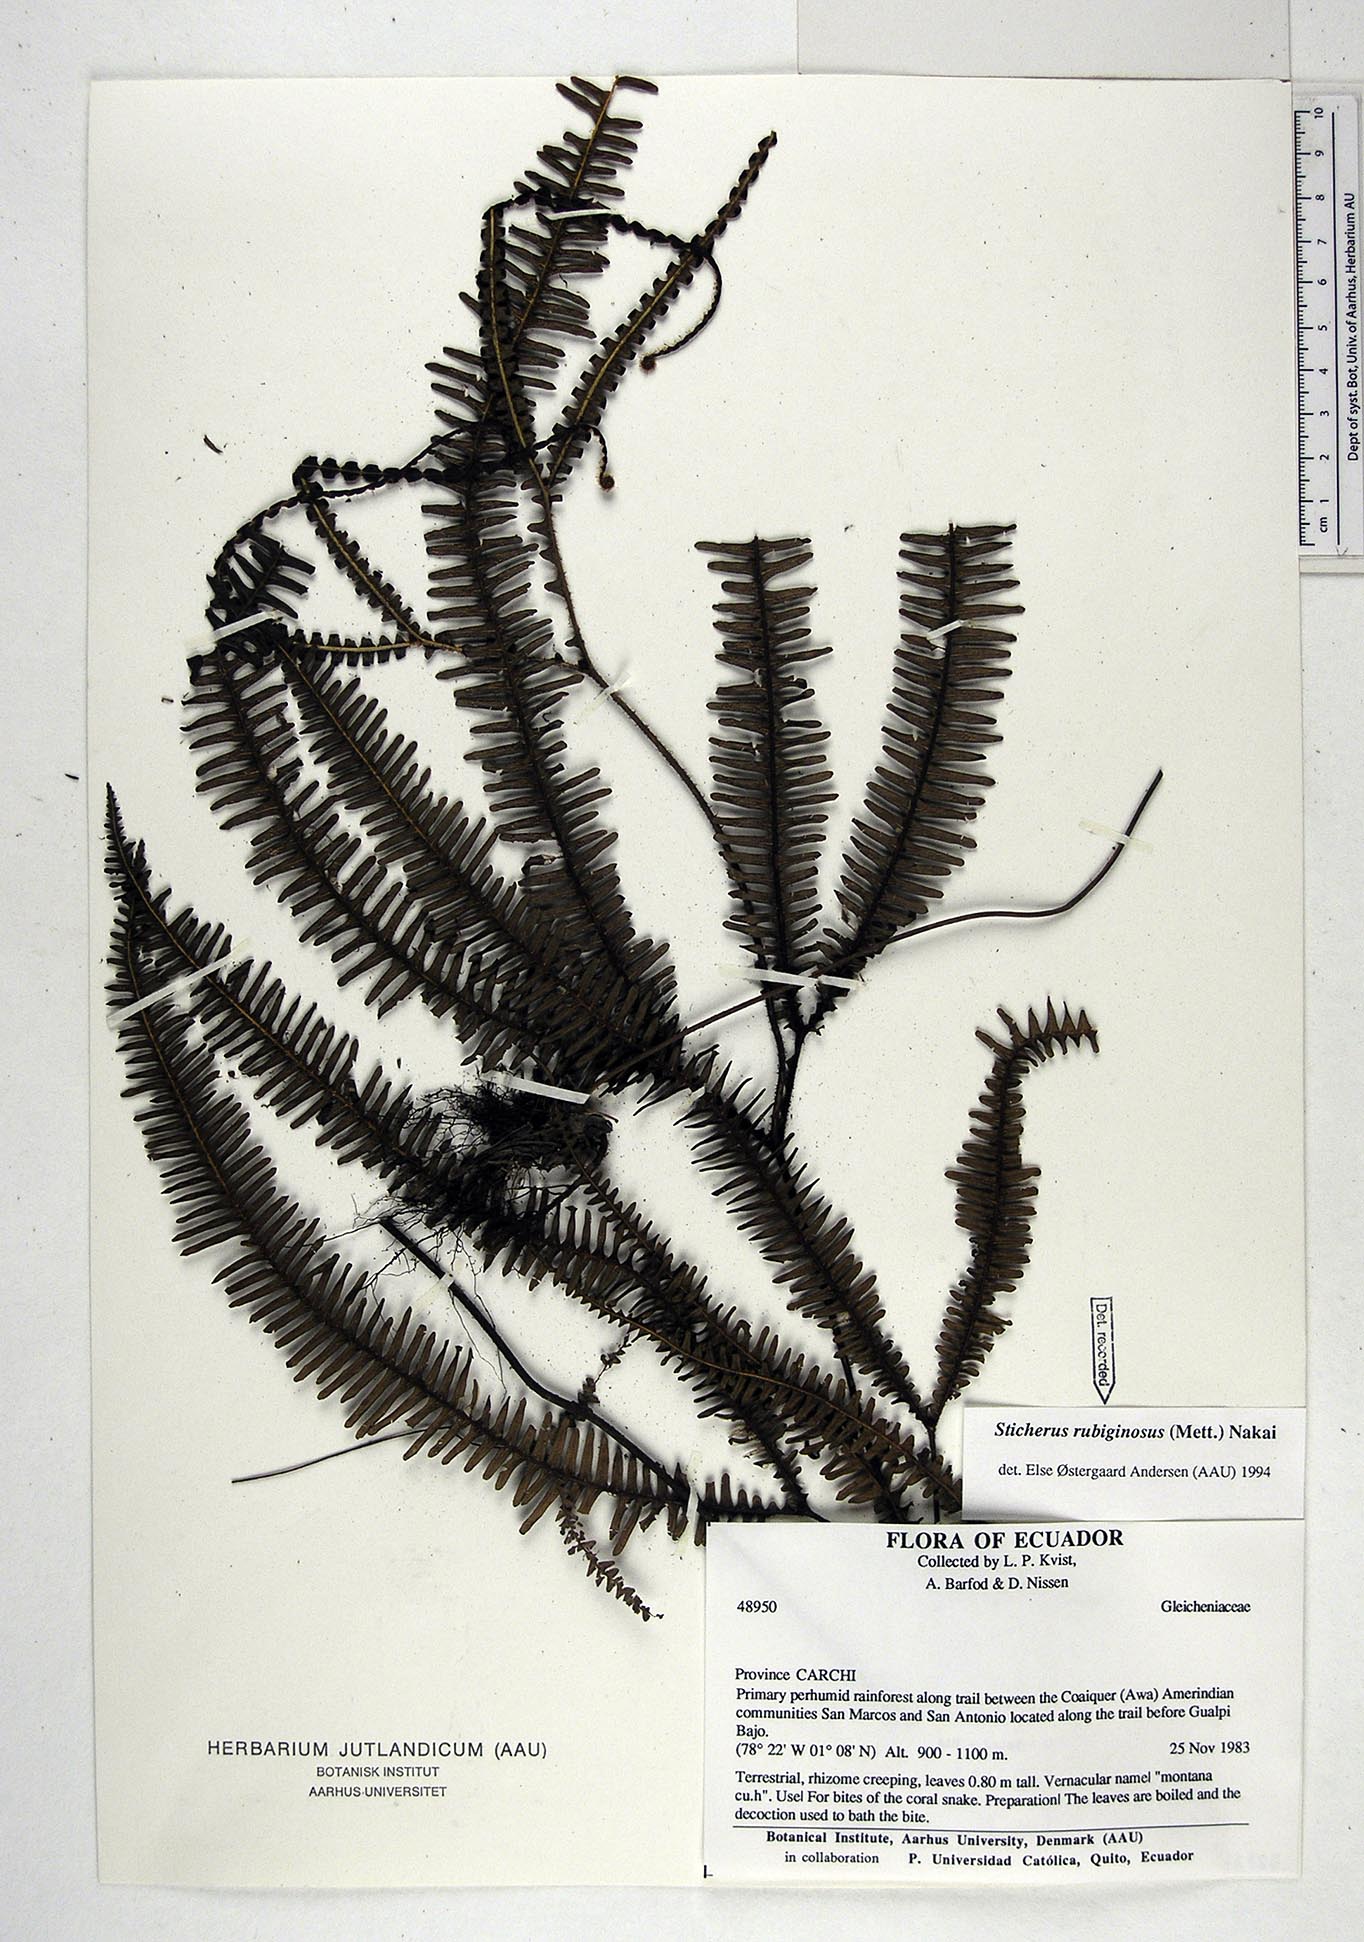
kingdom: Plantae
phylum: Tracheophyta
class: Polypodiopsida
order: Gleicheniales
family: Gleicheniaceae
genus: Sticherus
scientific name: Sticherus rubiginosus
